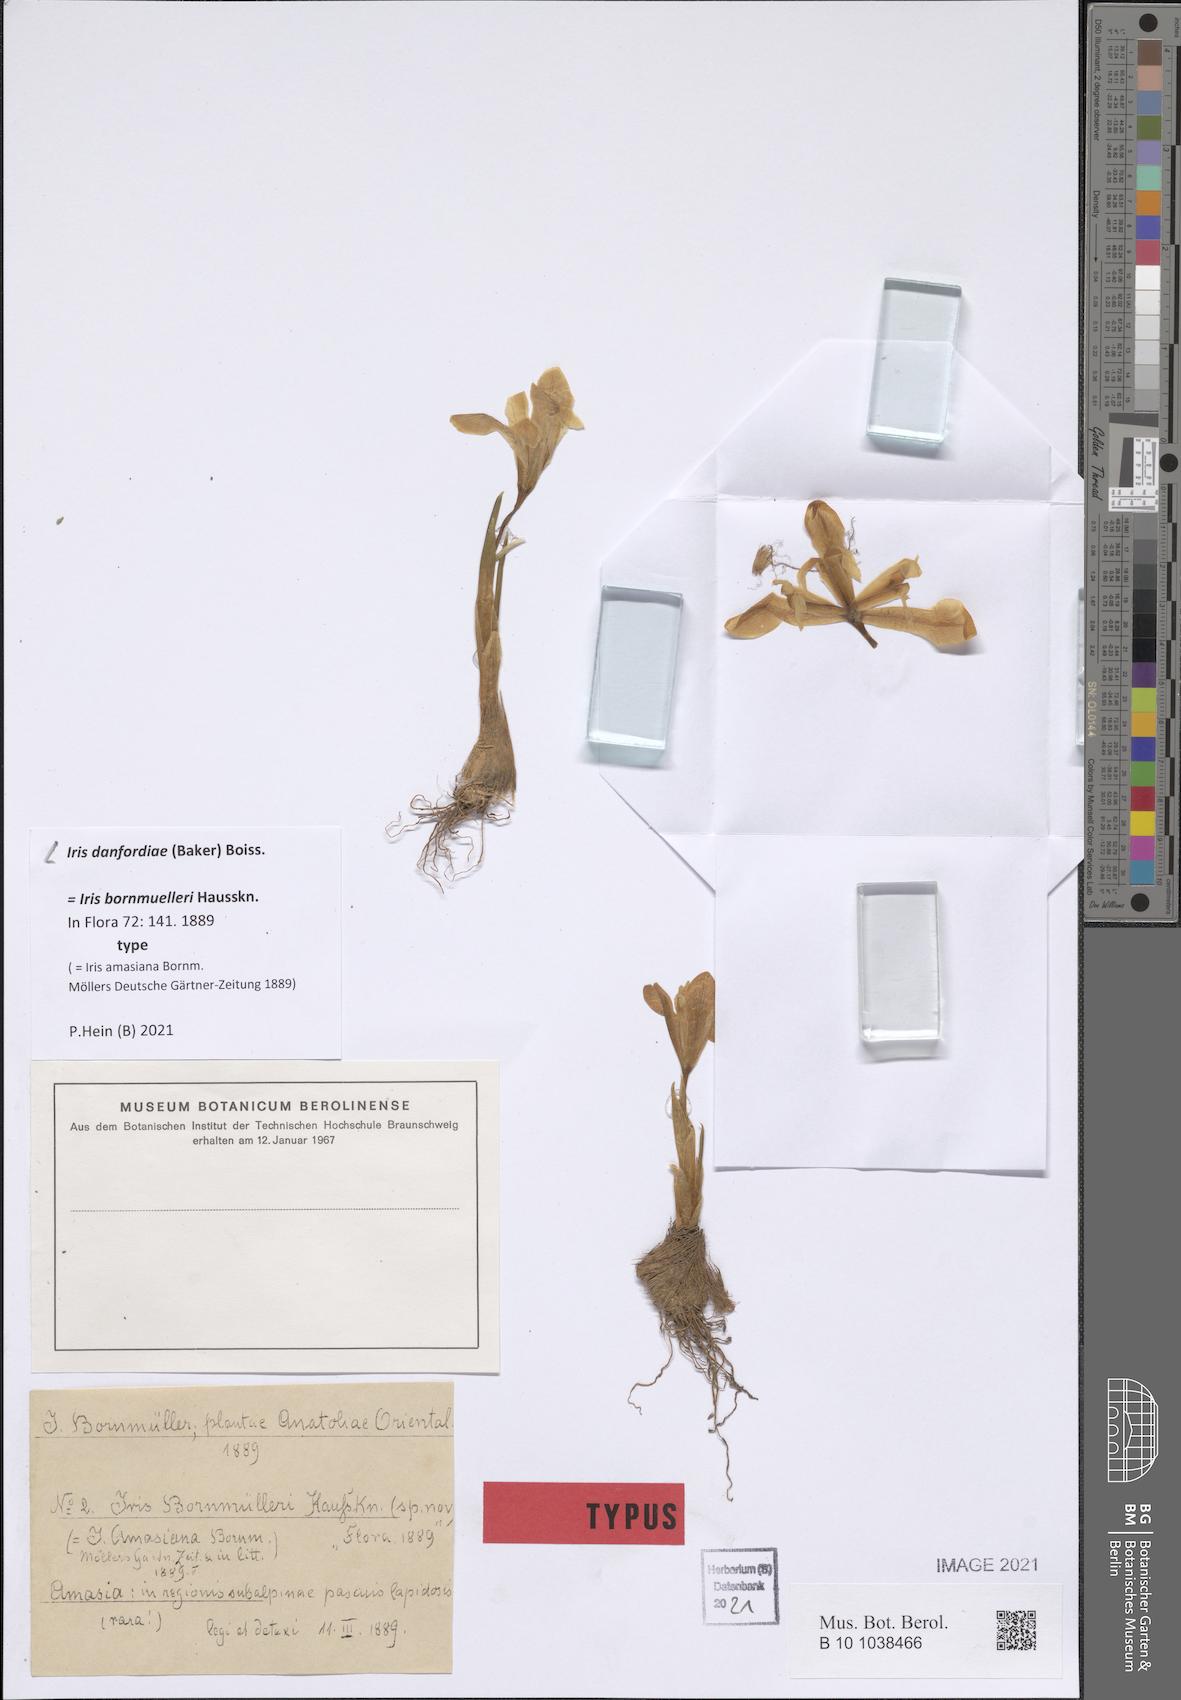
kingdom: Plantae
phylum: Tracheophyta
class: Liliopsida
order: Asparagales
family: Iridaceae
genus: Iris
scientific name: Iris danfordiae
